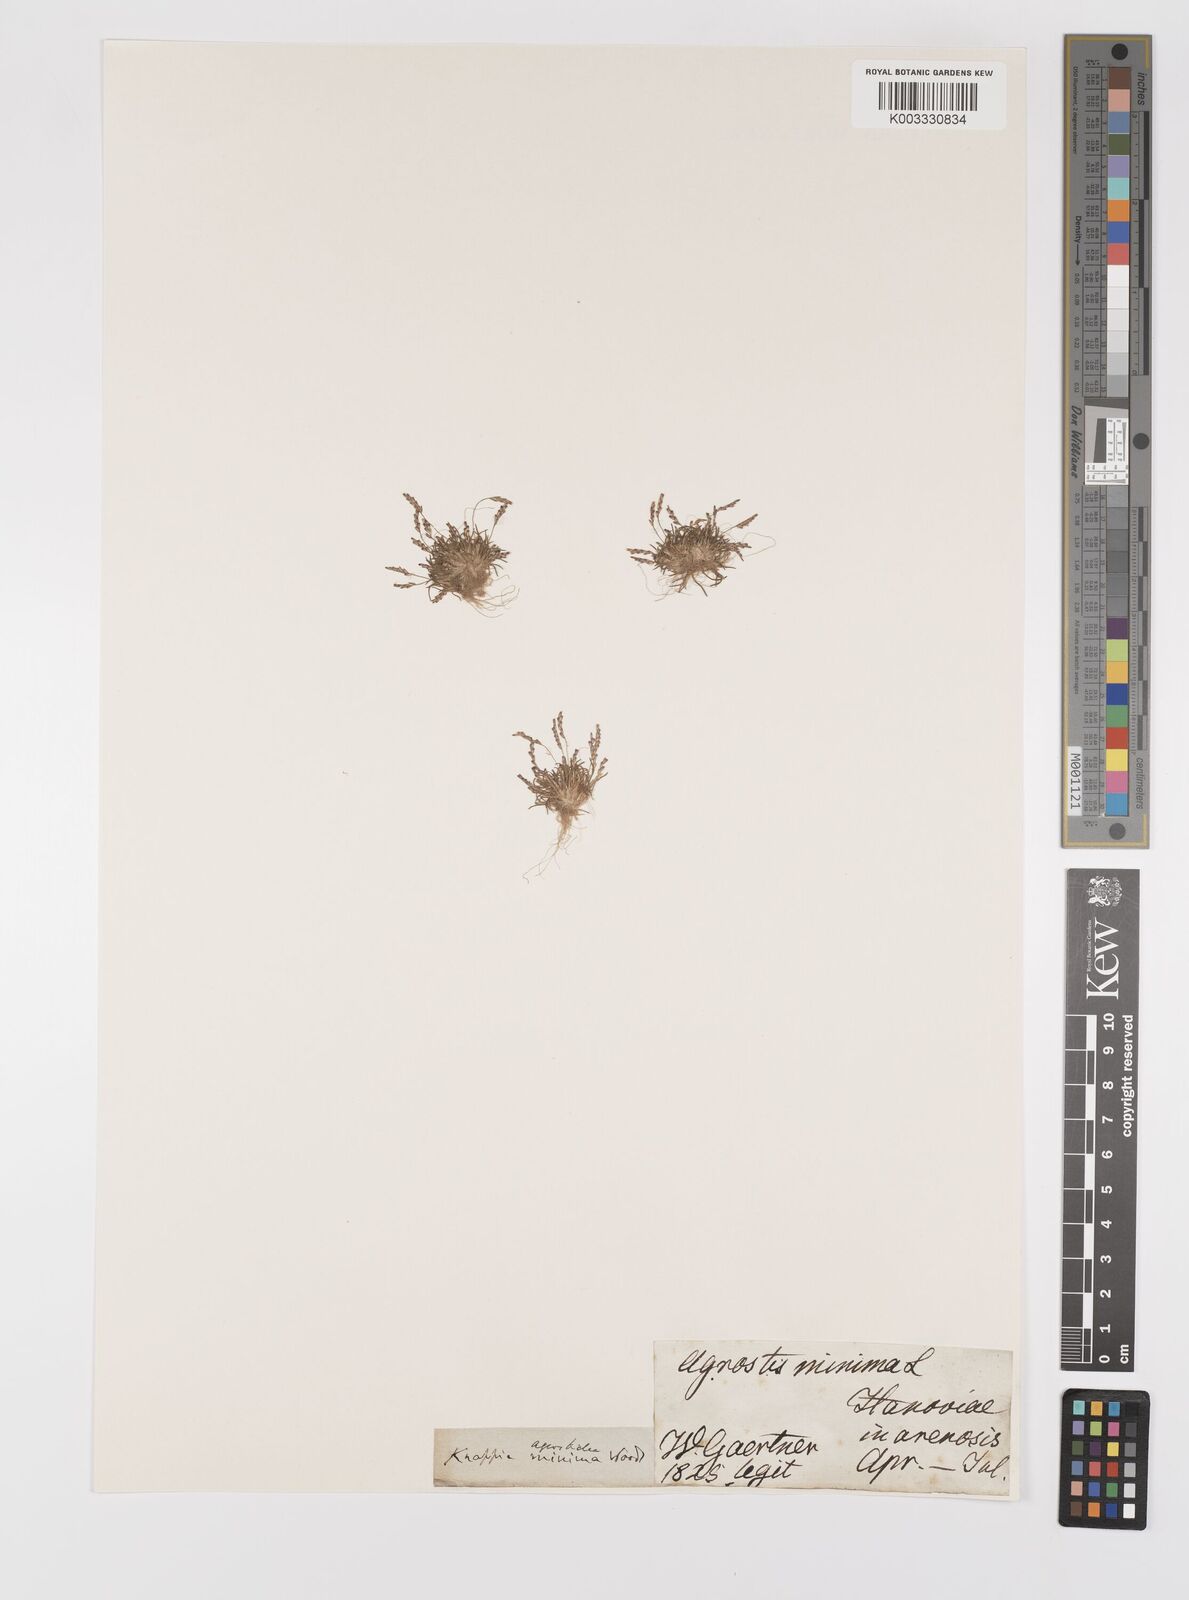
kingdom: Plantae
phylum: Tracheophyta
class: Liliopsida
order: Poales
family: Poaceae
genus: Mibora
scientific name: Mibora minima
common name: Early sand-grass
